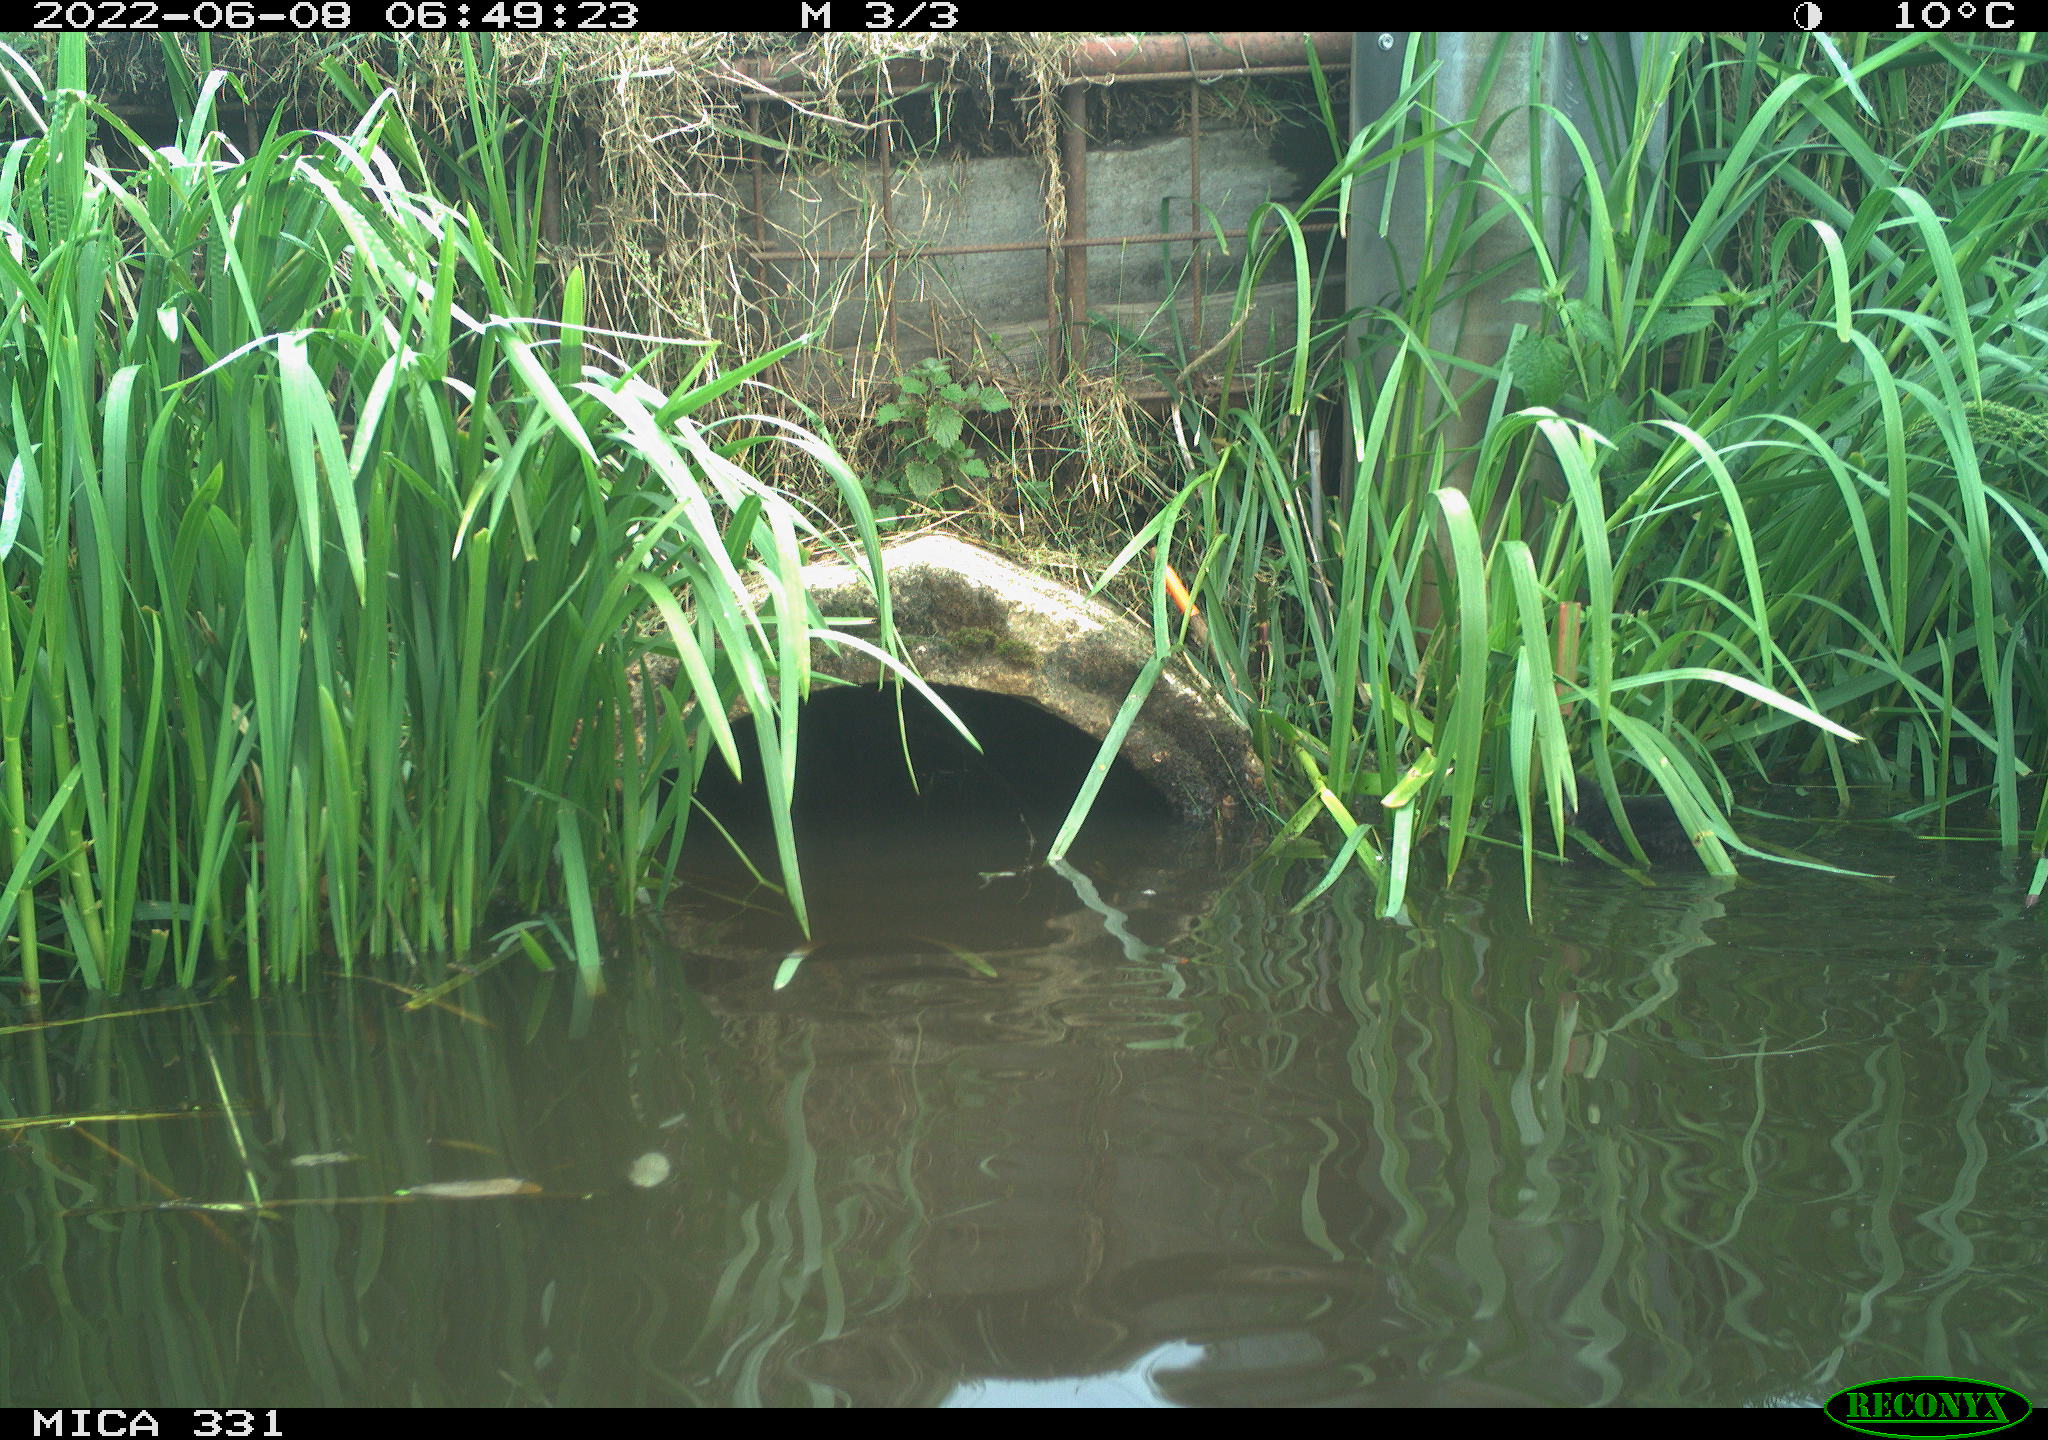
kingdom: Animalia
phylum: Chordata
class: Aves
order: Gruiformes
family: Rallidae
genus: Gallinula
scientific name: Gallinula chloropus
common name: Common moorhen
